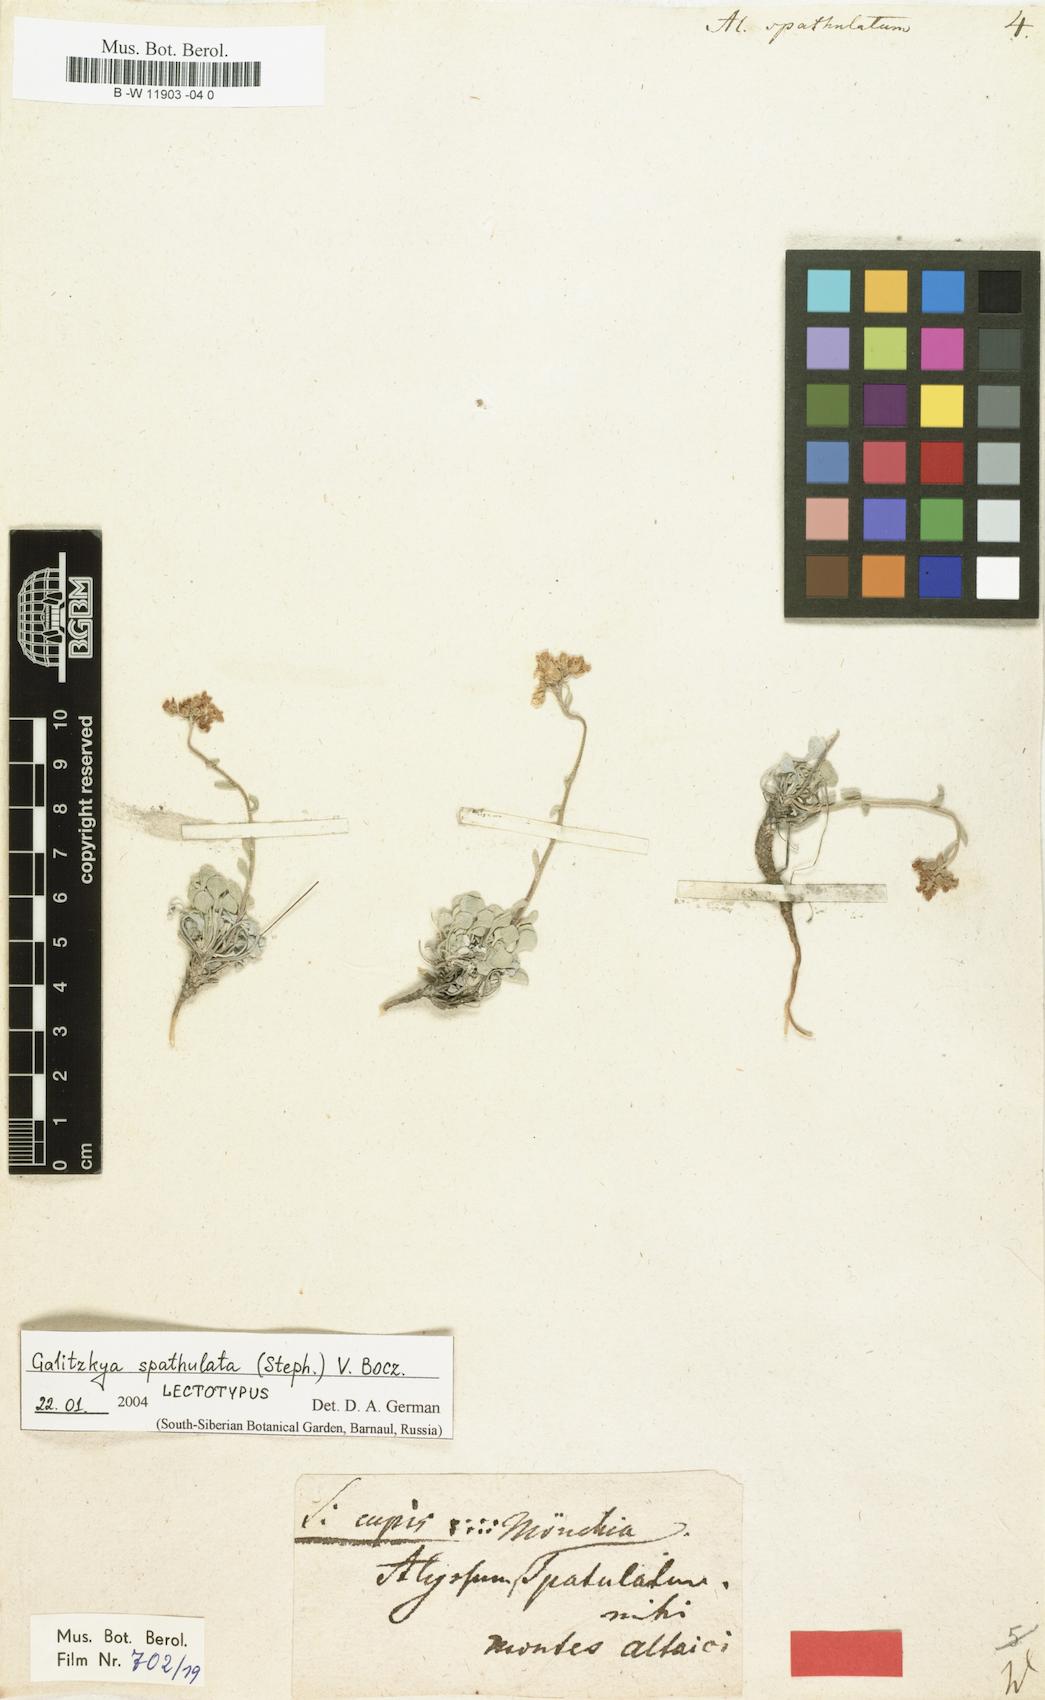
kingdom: Plantae
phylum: Tracheophyta
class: Magnoliopsida
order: Brassicales
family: Brassicaceae
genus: Galitzkya
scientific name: Galitzkya spathulata
